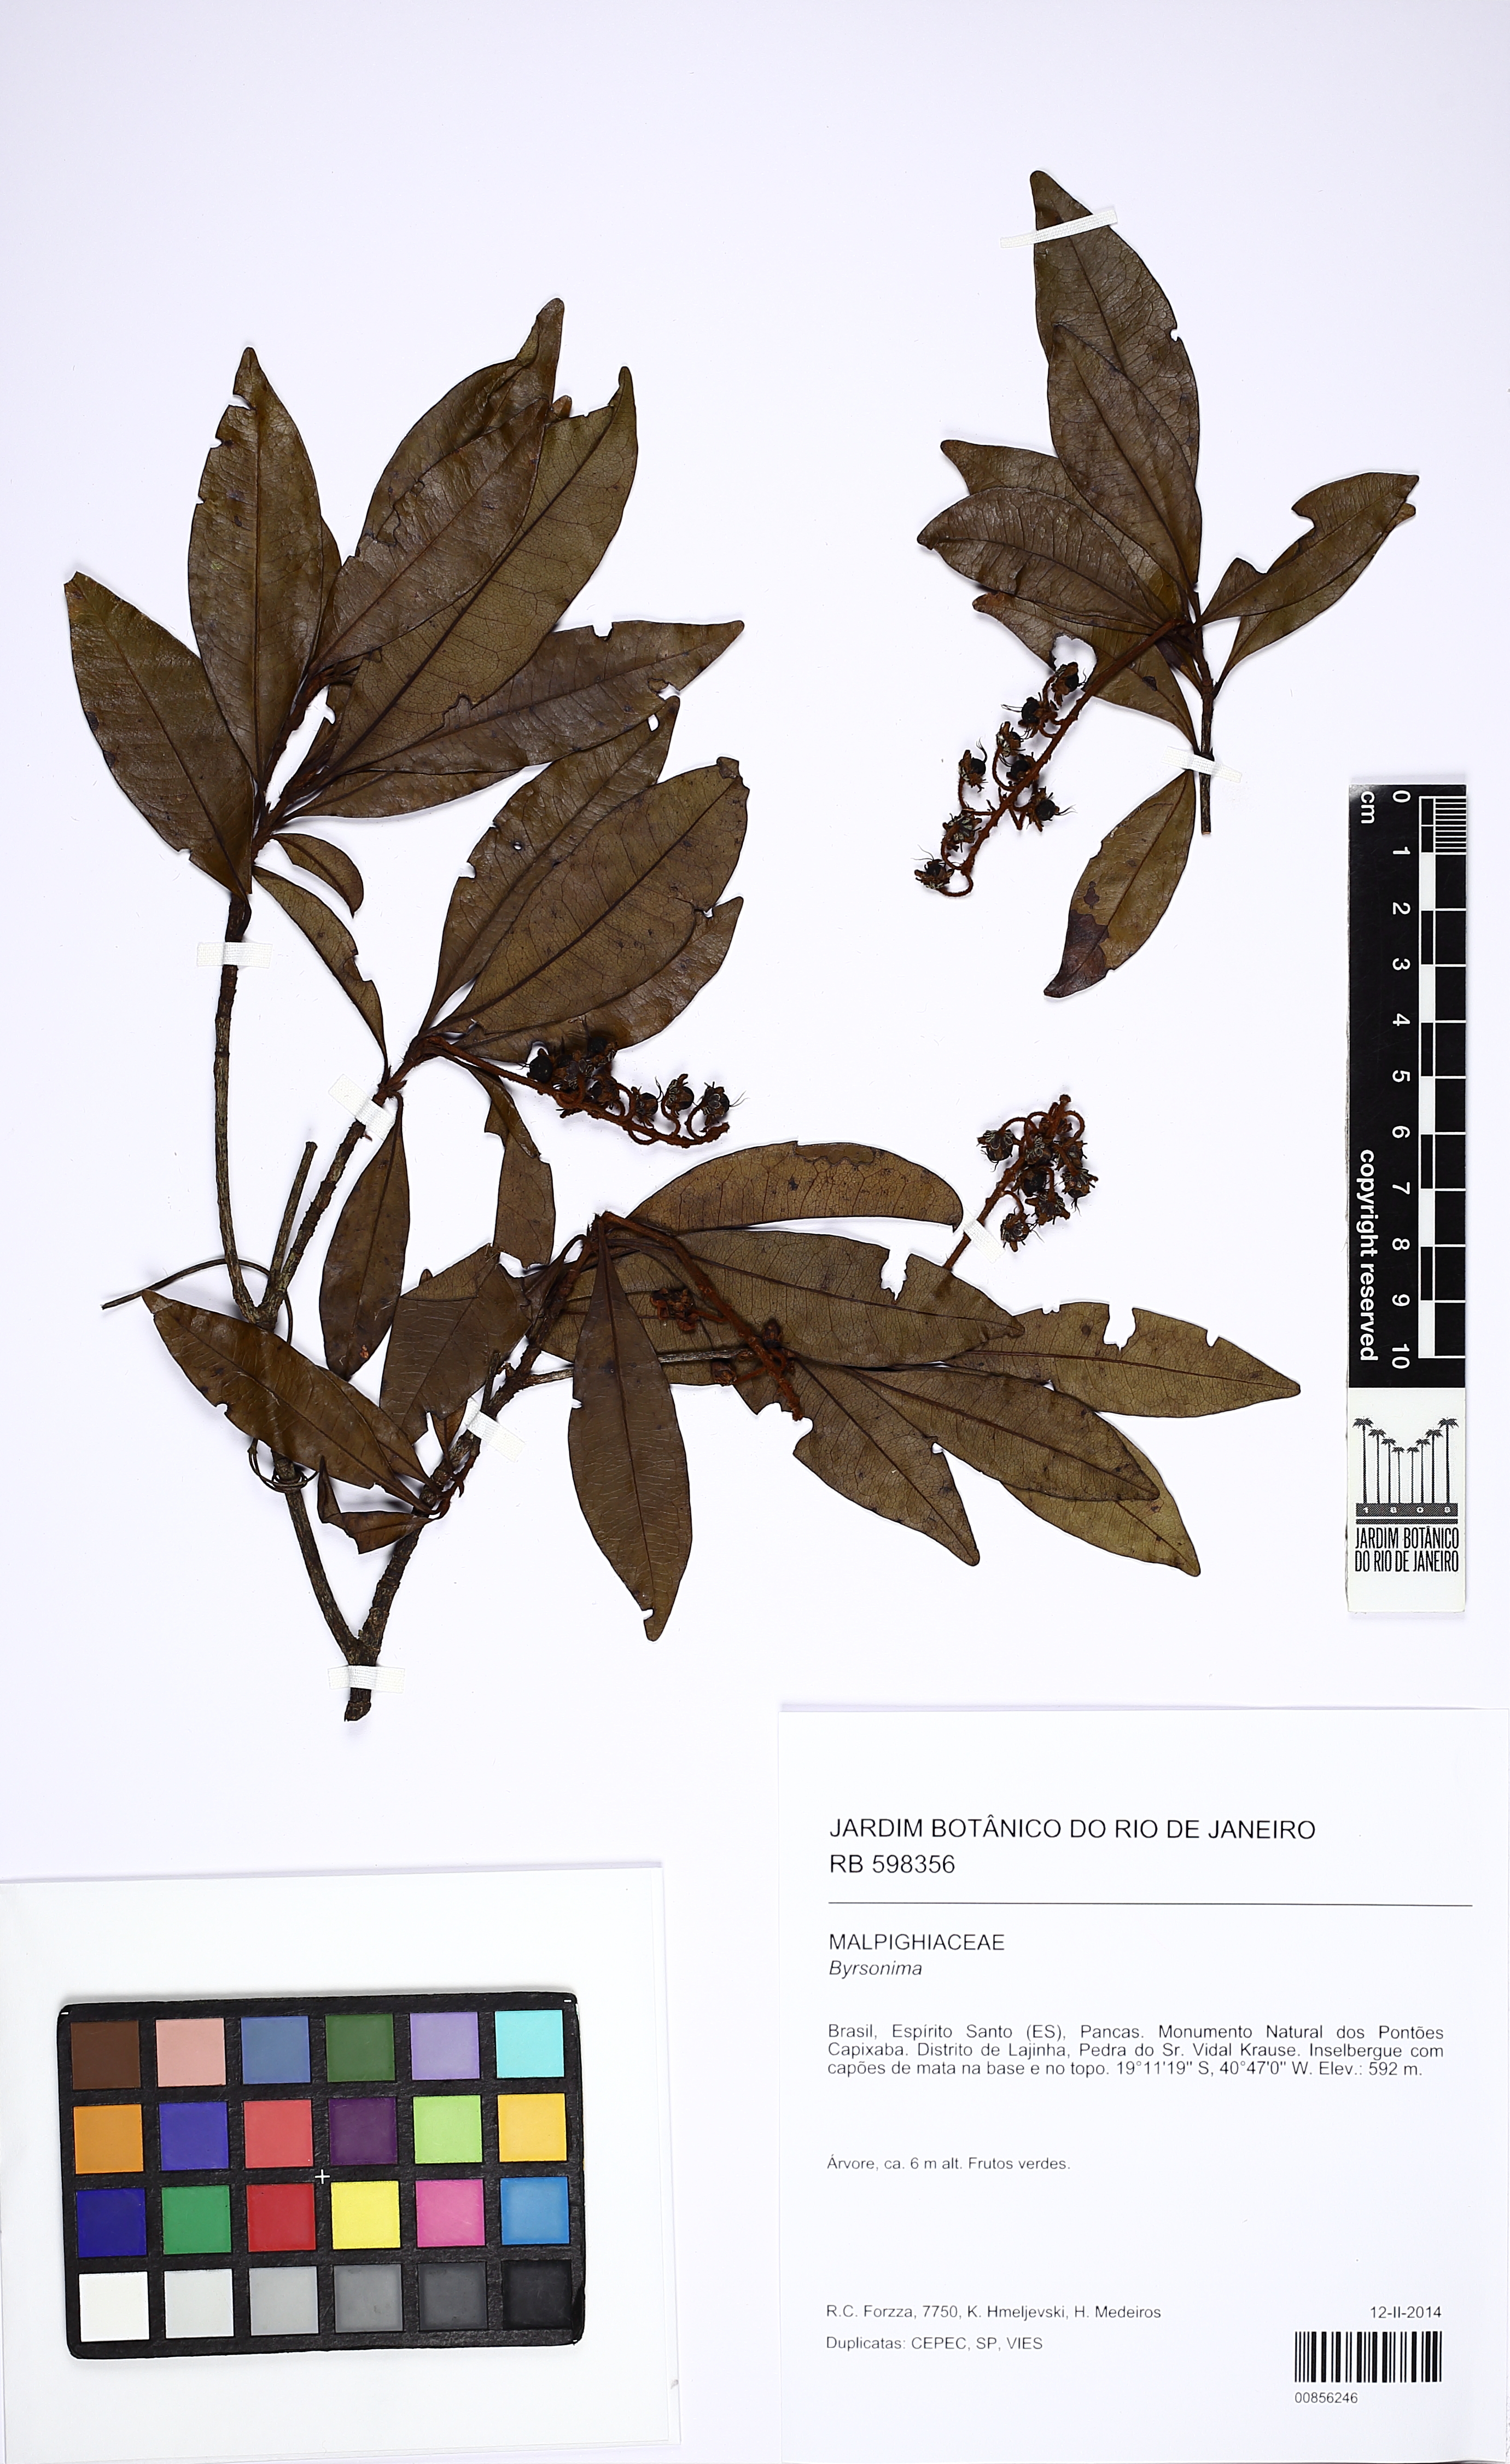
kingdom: Plantae
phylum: Tracheophyta
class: Magnoliopsida
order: Malpighiales
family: Malpighiaceae
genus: Byrsonima
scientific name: Byrsonima
